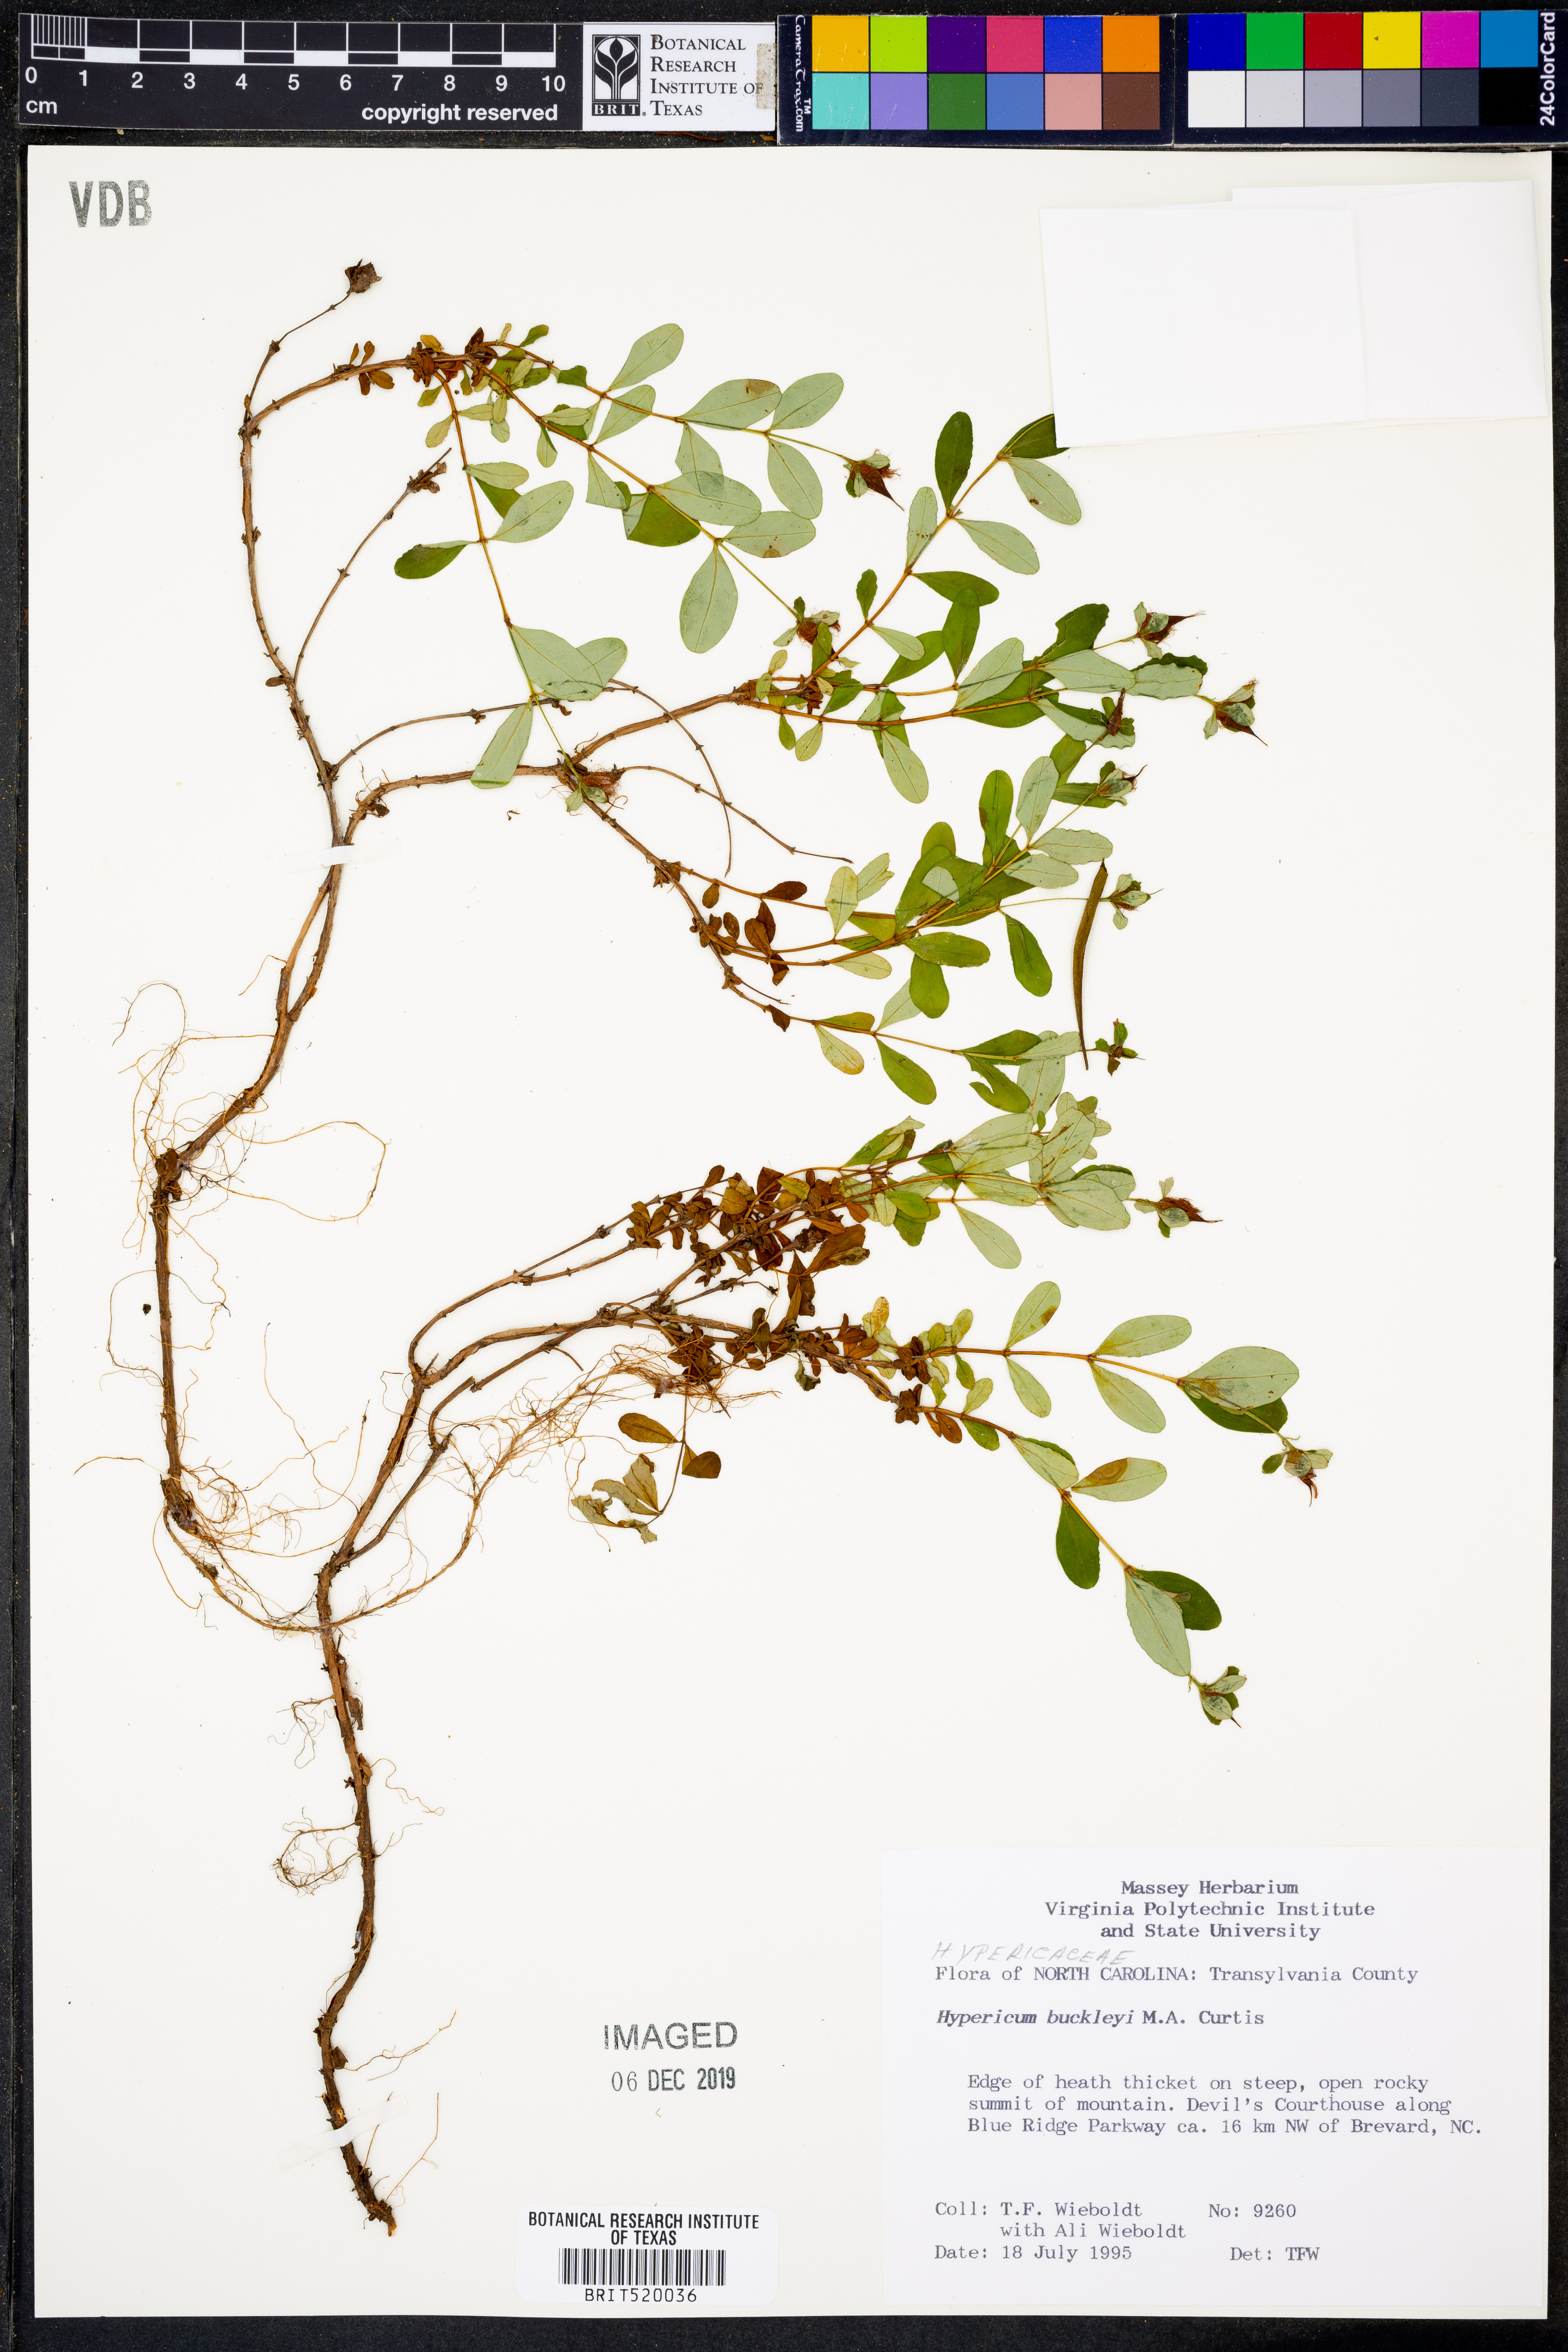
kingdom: Plantae
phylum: Tracheophyta
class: Magnoliopsida
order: Malpighiales
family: Hypericaceae
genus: Hypericum
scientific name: Hypericum buckleyi
